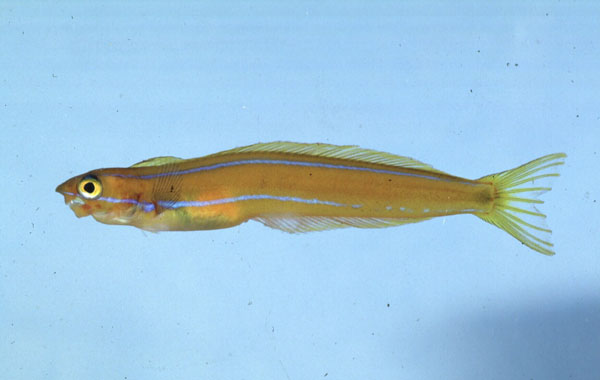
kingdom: Animalia
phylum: Chordata
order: Perciformes
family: Blenniidae
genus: Plagiotremus
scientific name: Plagiotremus rhinorhynchos
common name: Bluestriped fangblenny
